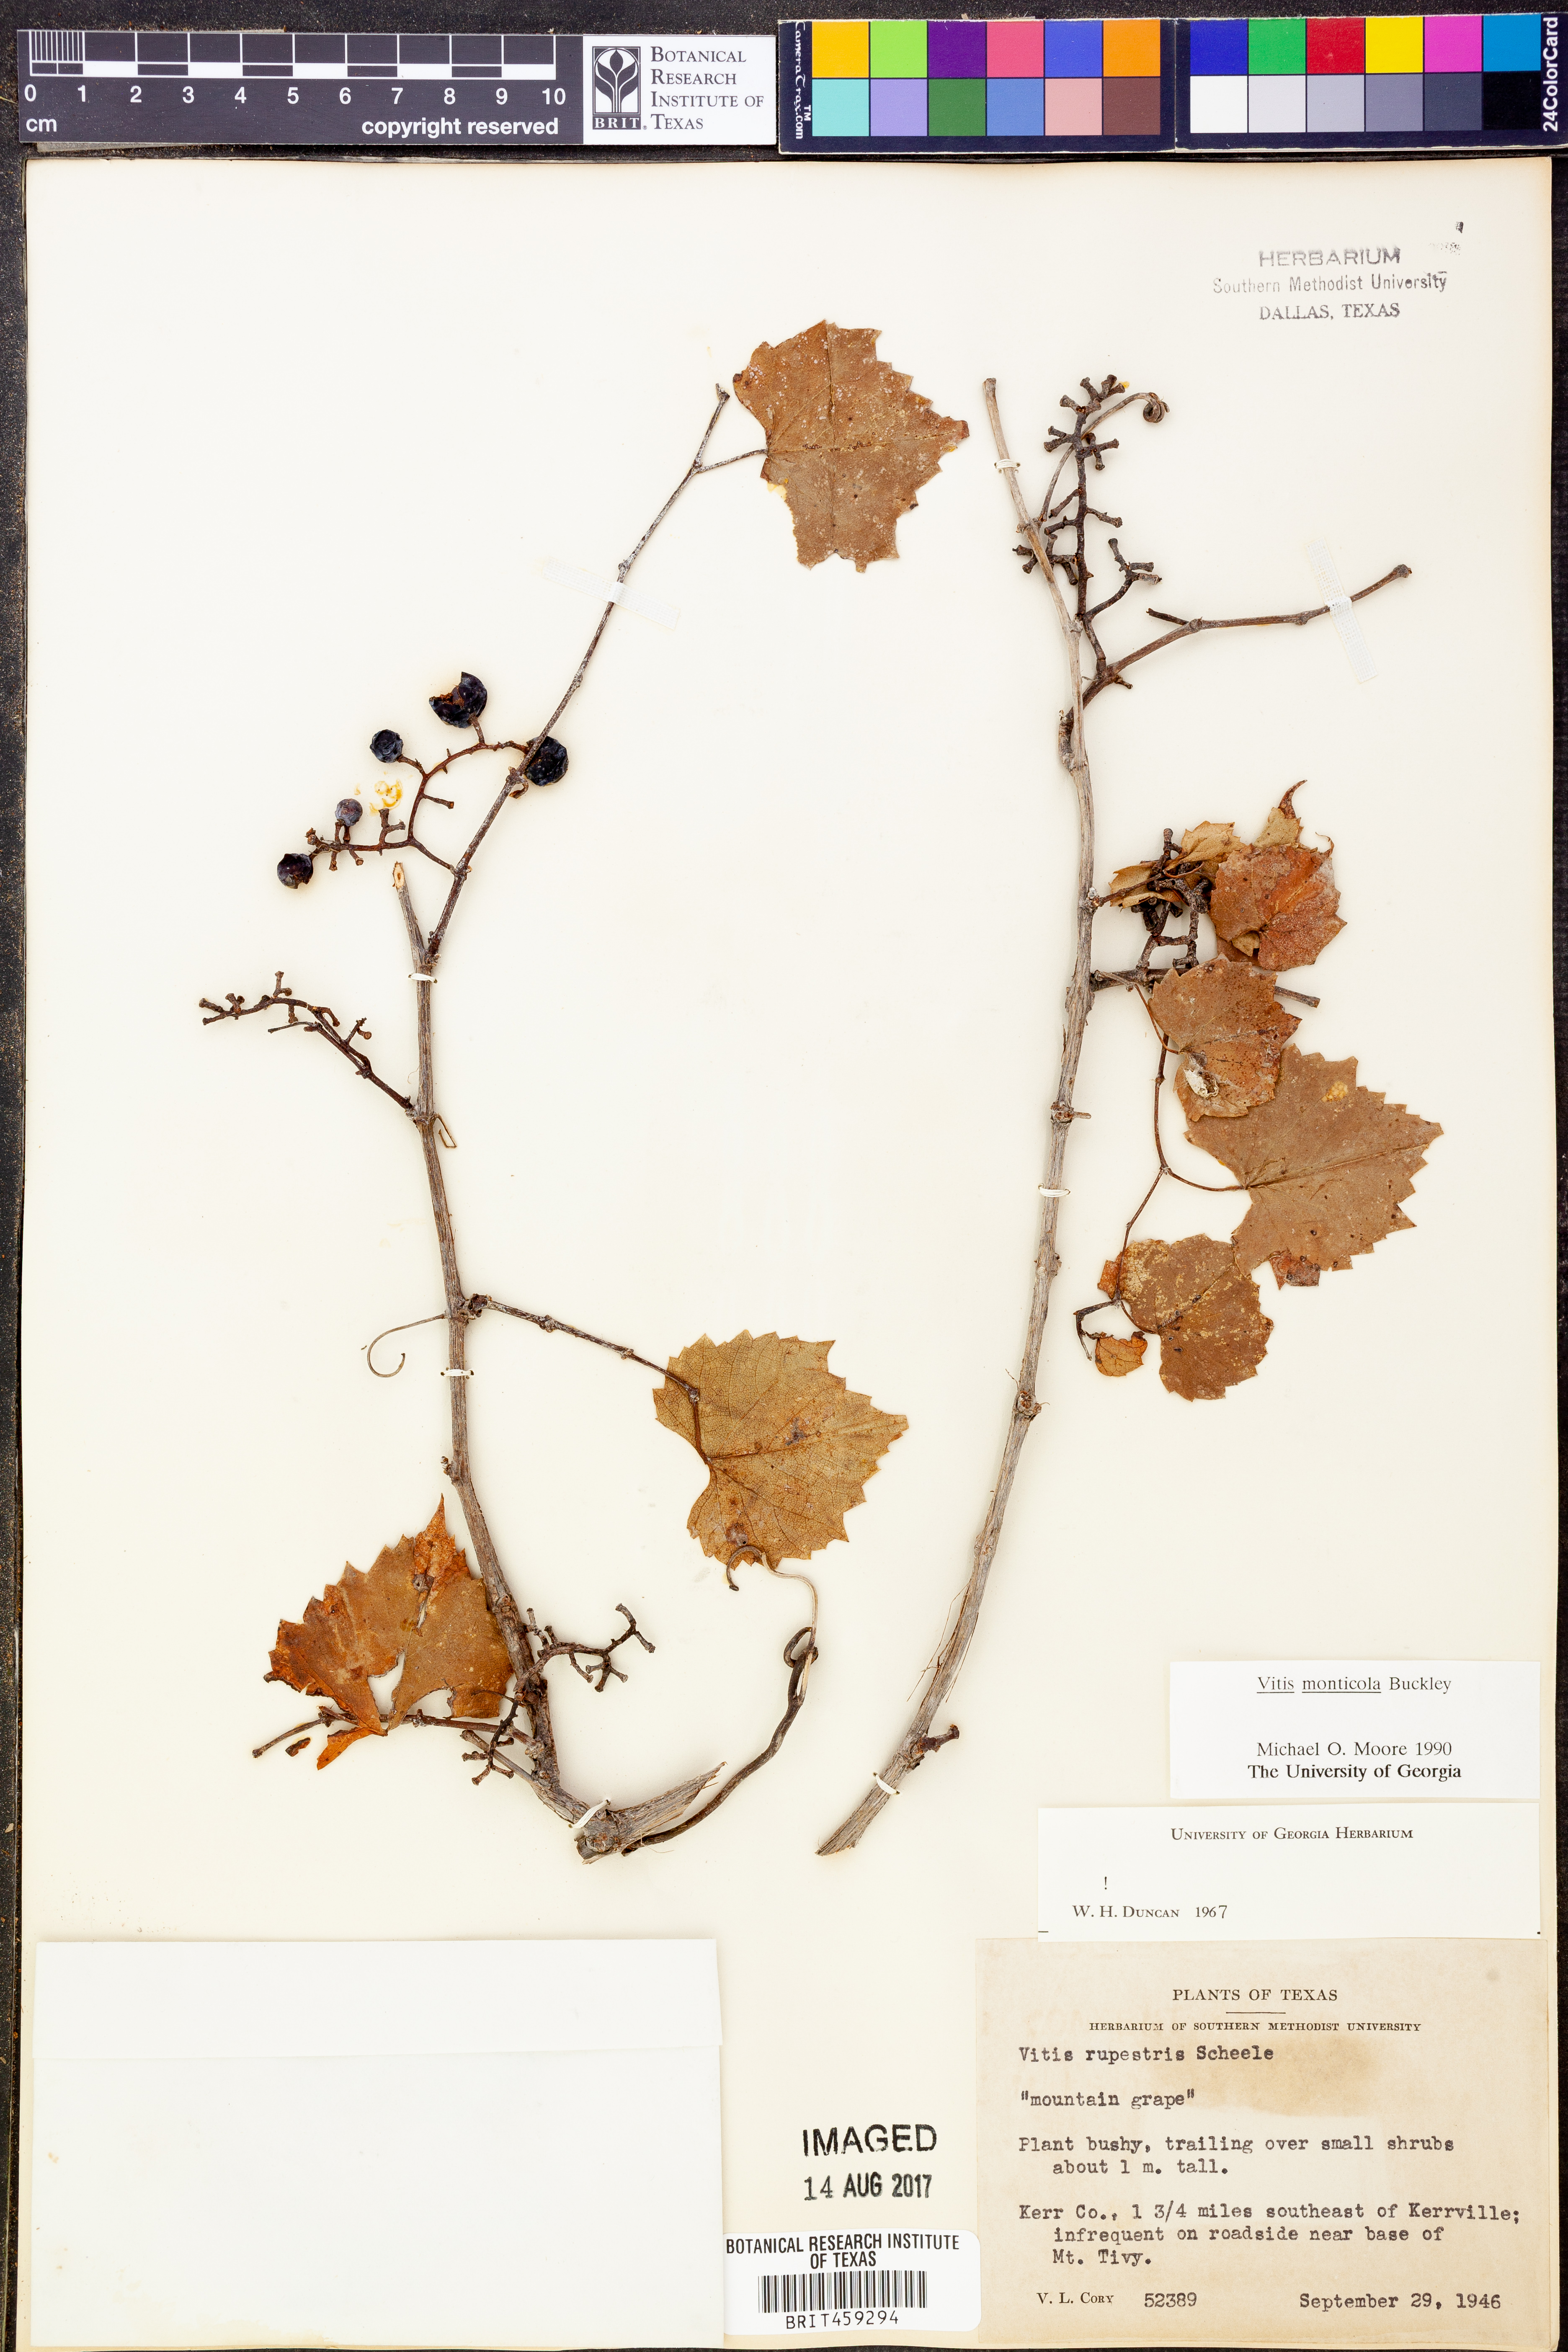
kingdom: Plantae
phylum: Tracheophyta
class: Magnoliopsida
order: Vitales
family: Vitaceae
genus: Vitis
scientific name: Vitis monticola
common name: Mountain grape
